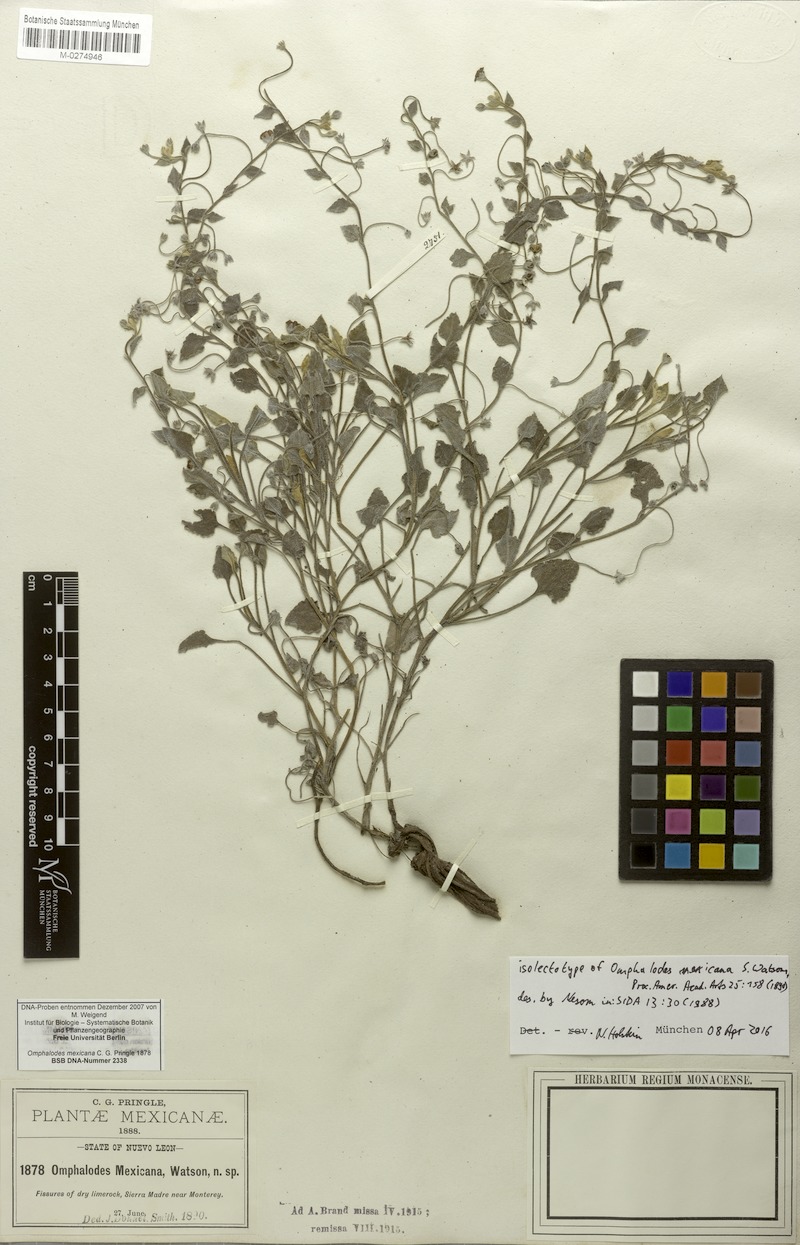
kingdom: Plantae
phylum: Tracheophyta
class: Magnoliopsida
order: Boraginales
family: Boraginaceae
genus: Mimophytum
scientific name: Mimophytum mexicanum
